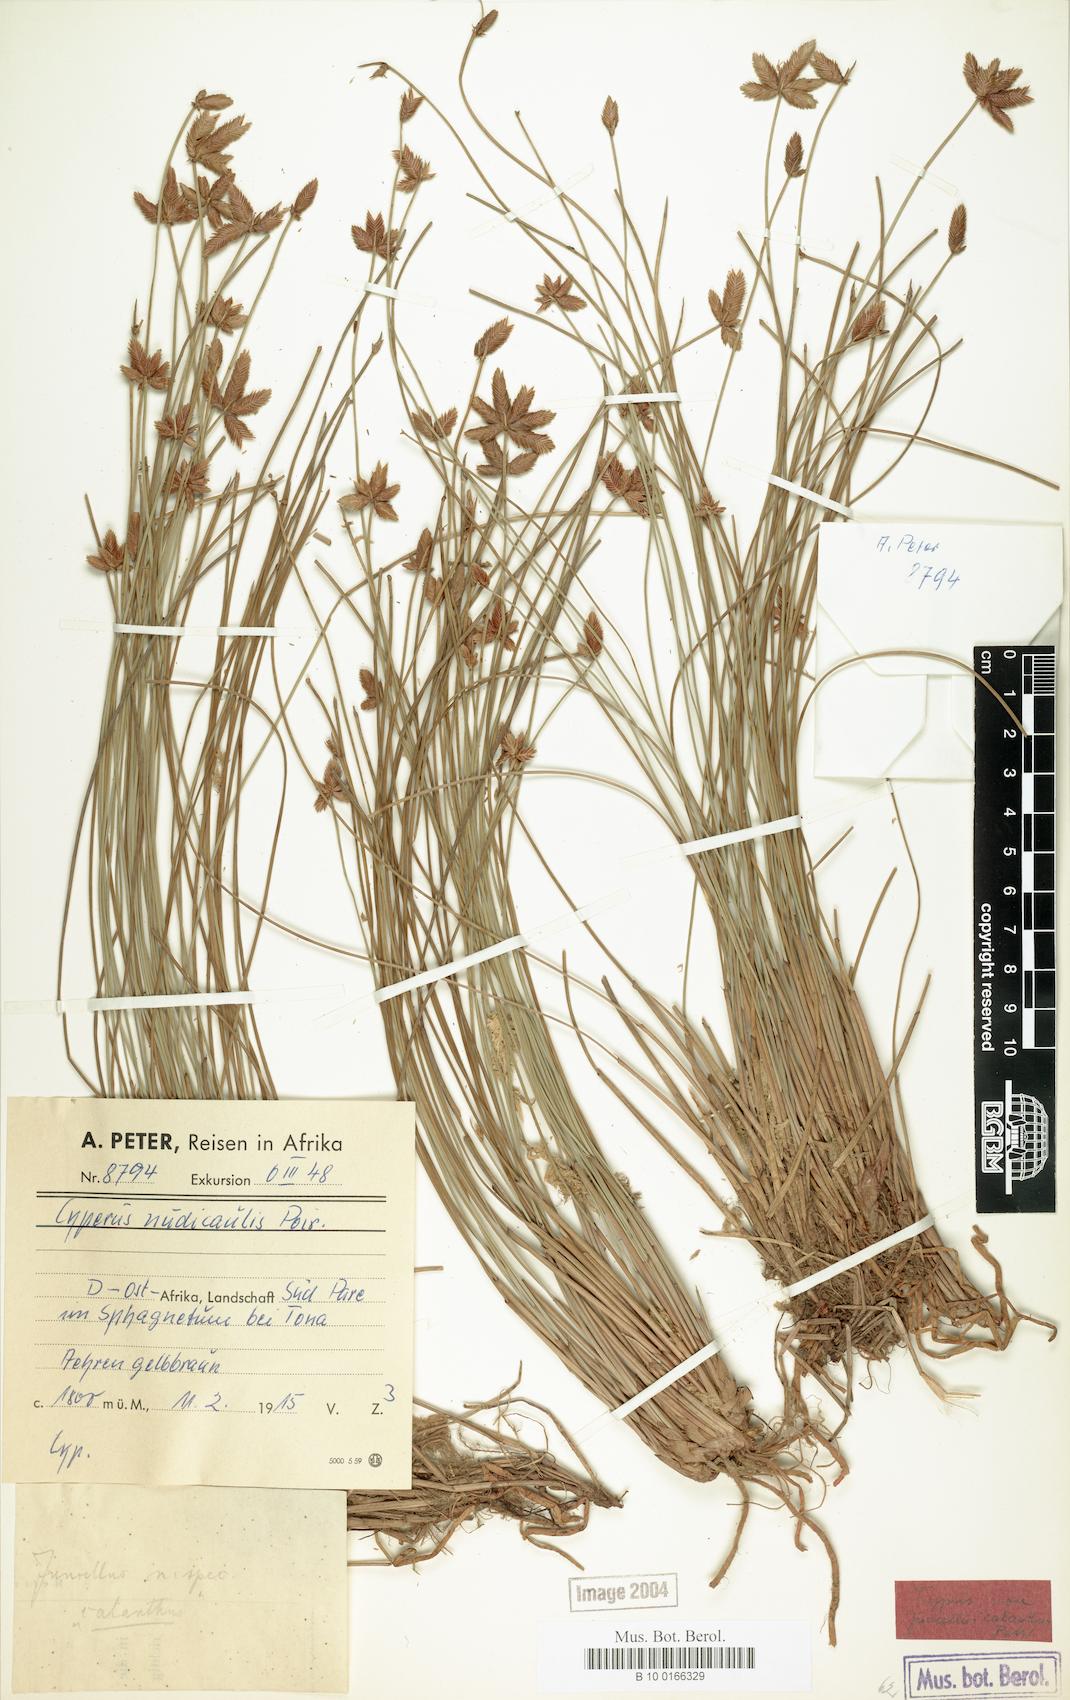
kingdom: Plantae
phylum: Tracheophyta
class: Liliopsida
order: Poales
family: Cyperaceae
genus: Cyperus
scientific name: Cyperus pectinatus
